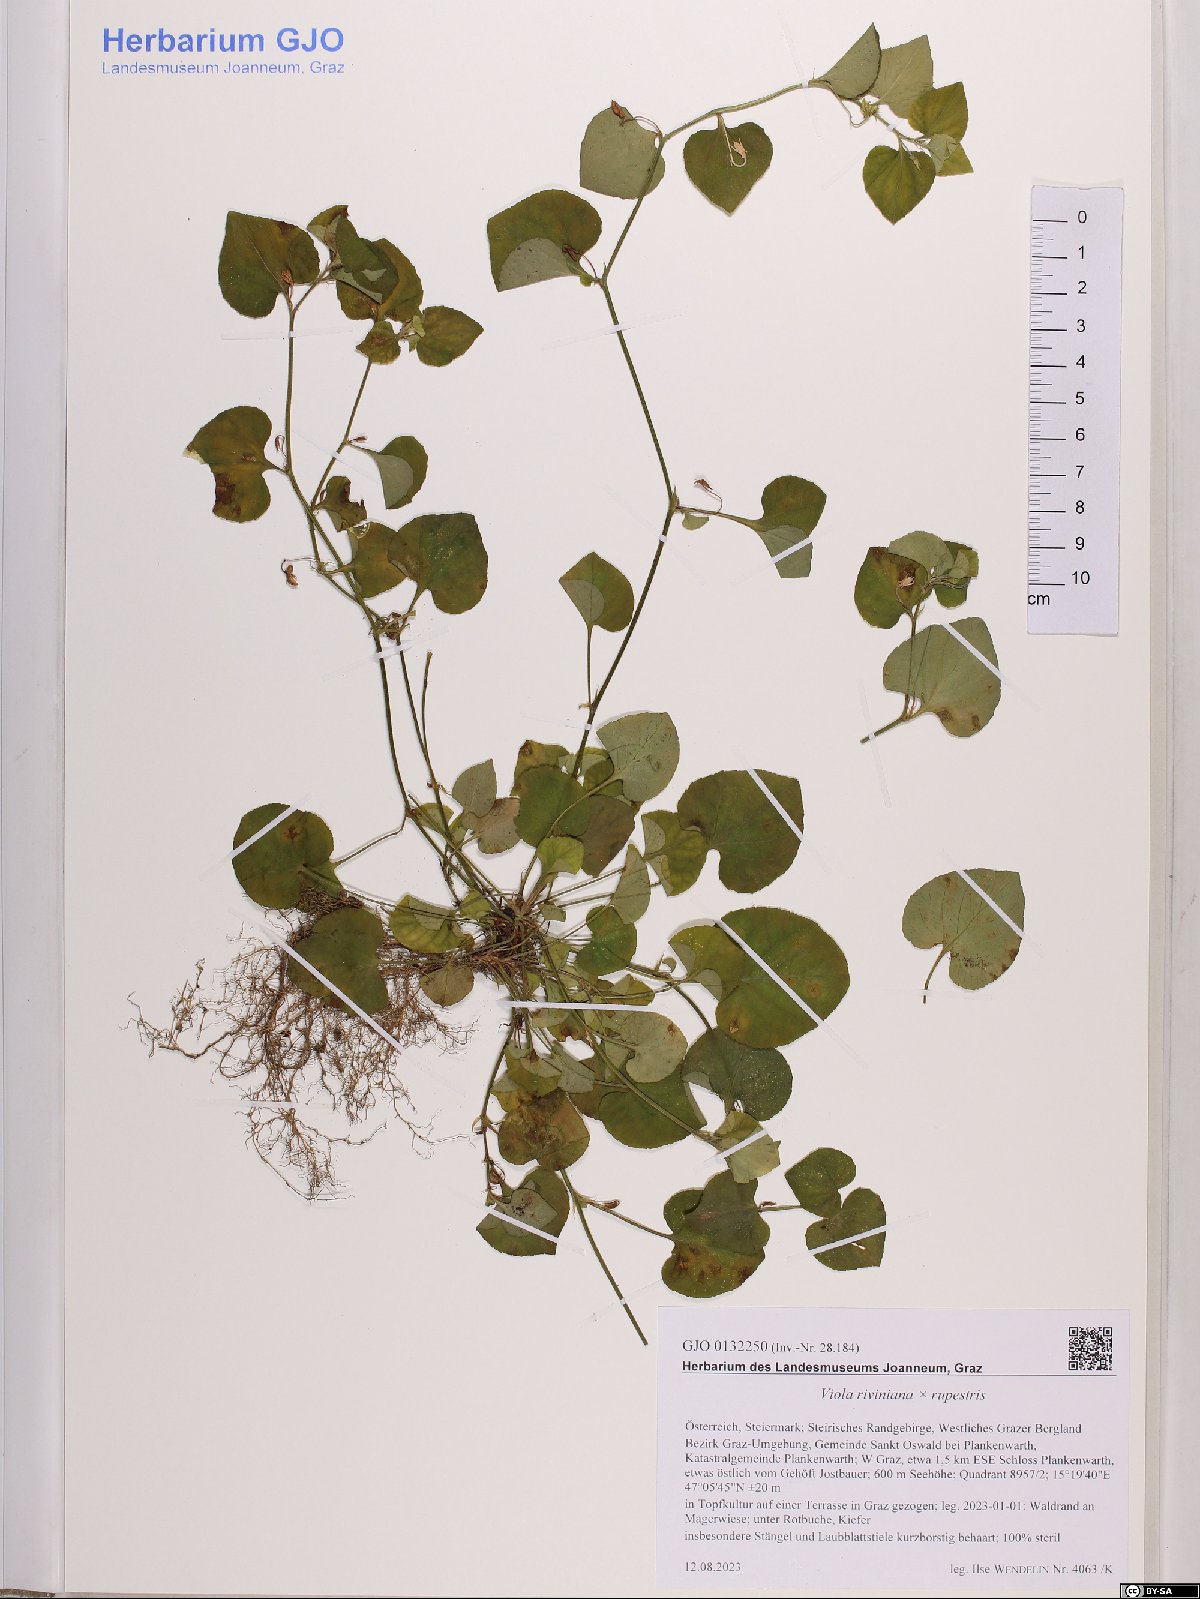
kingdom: Plantae
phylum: Tracheophyta
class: Magnoliopsida
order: Malpighiales
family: Violaceae
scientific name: Violaceae
